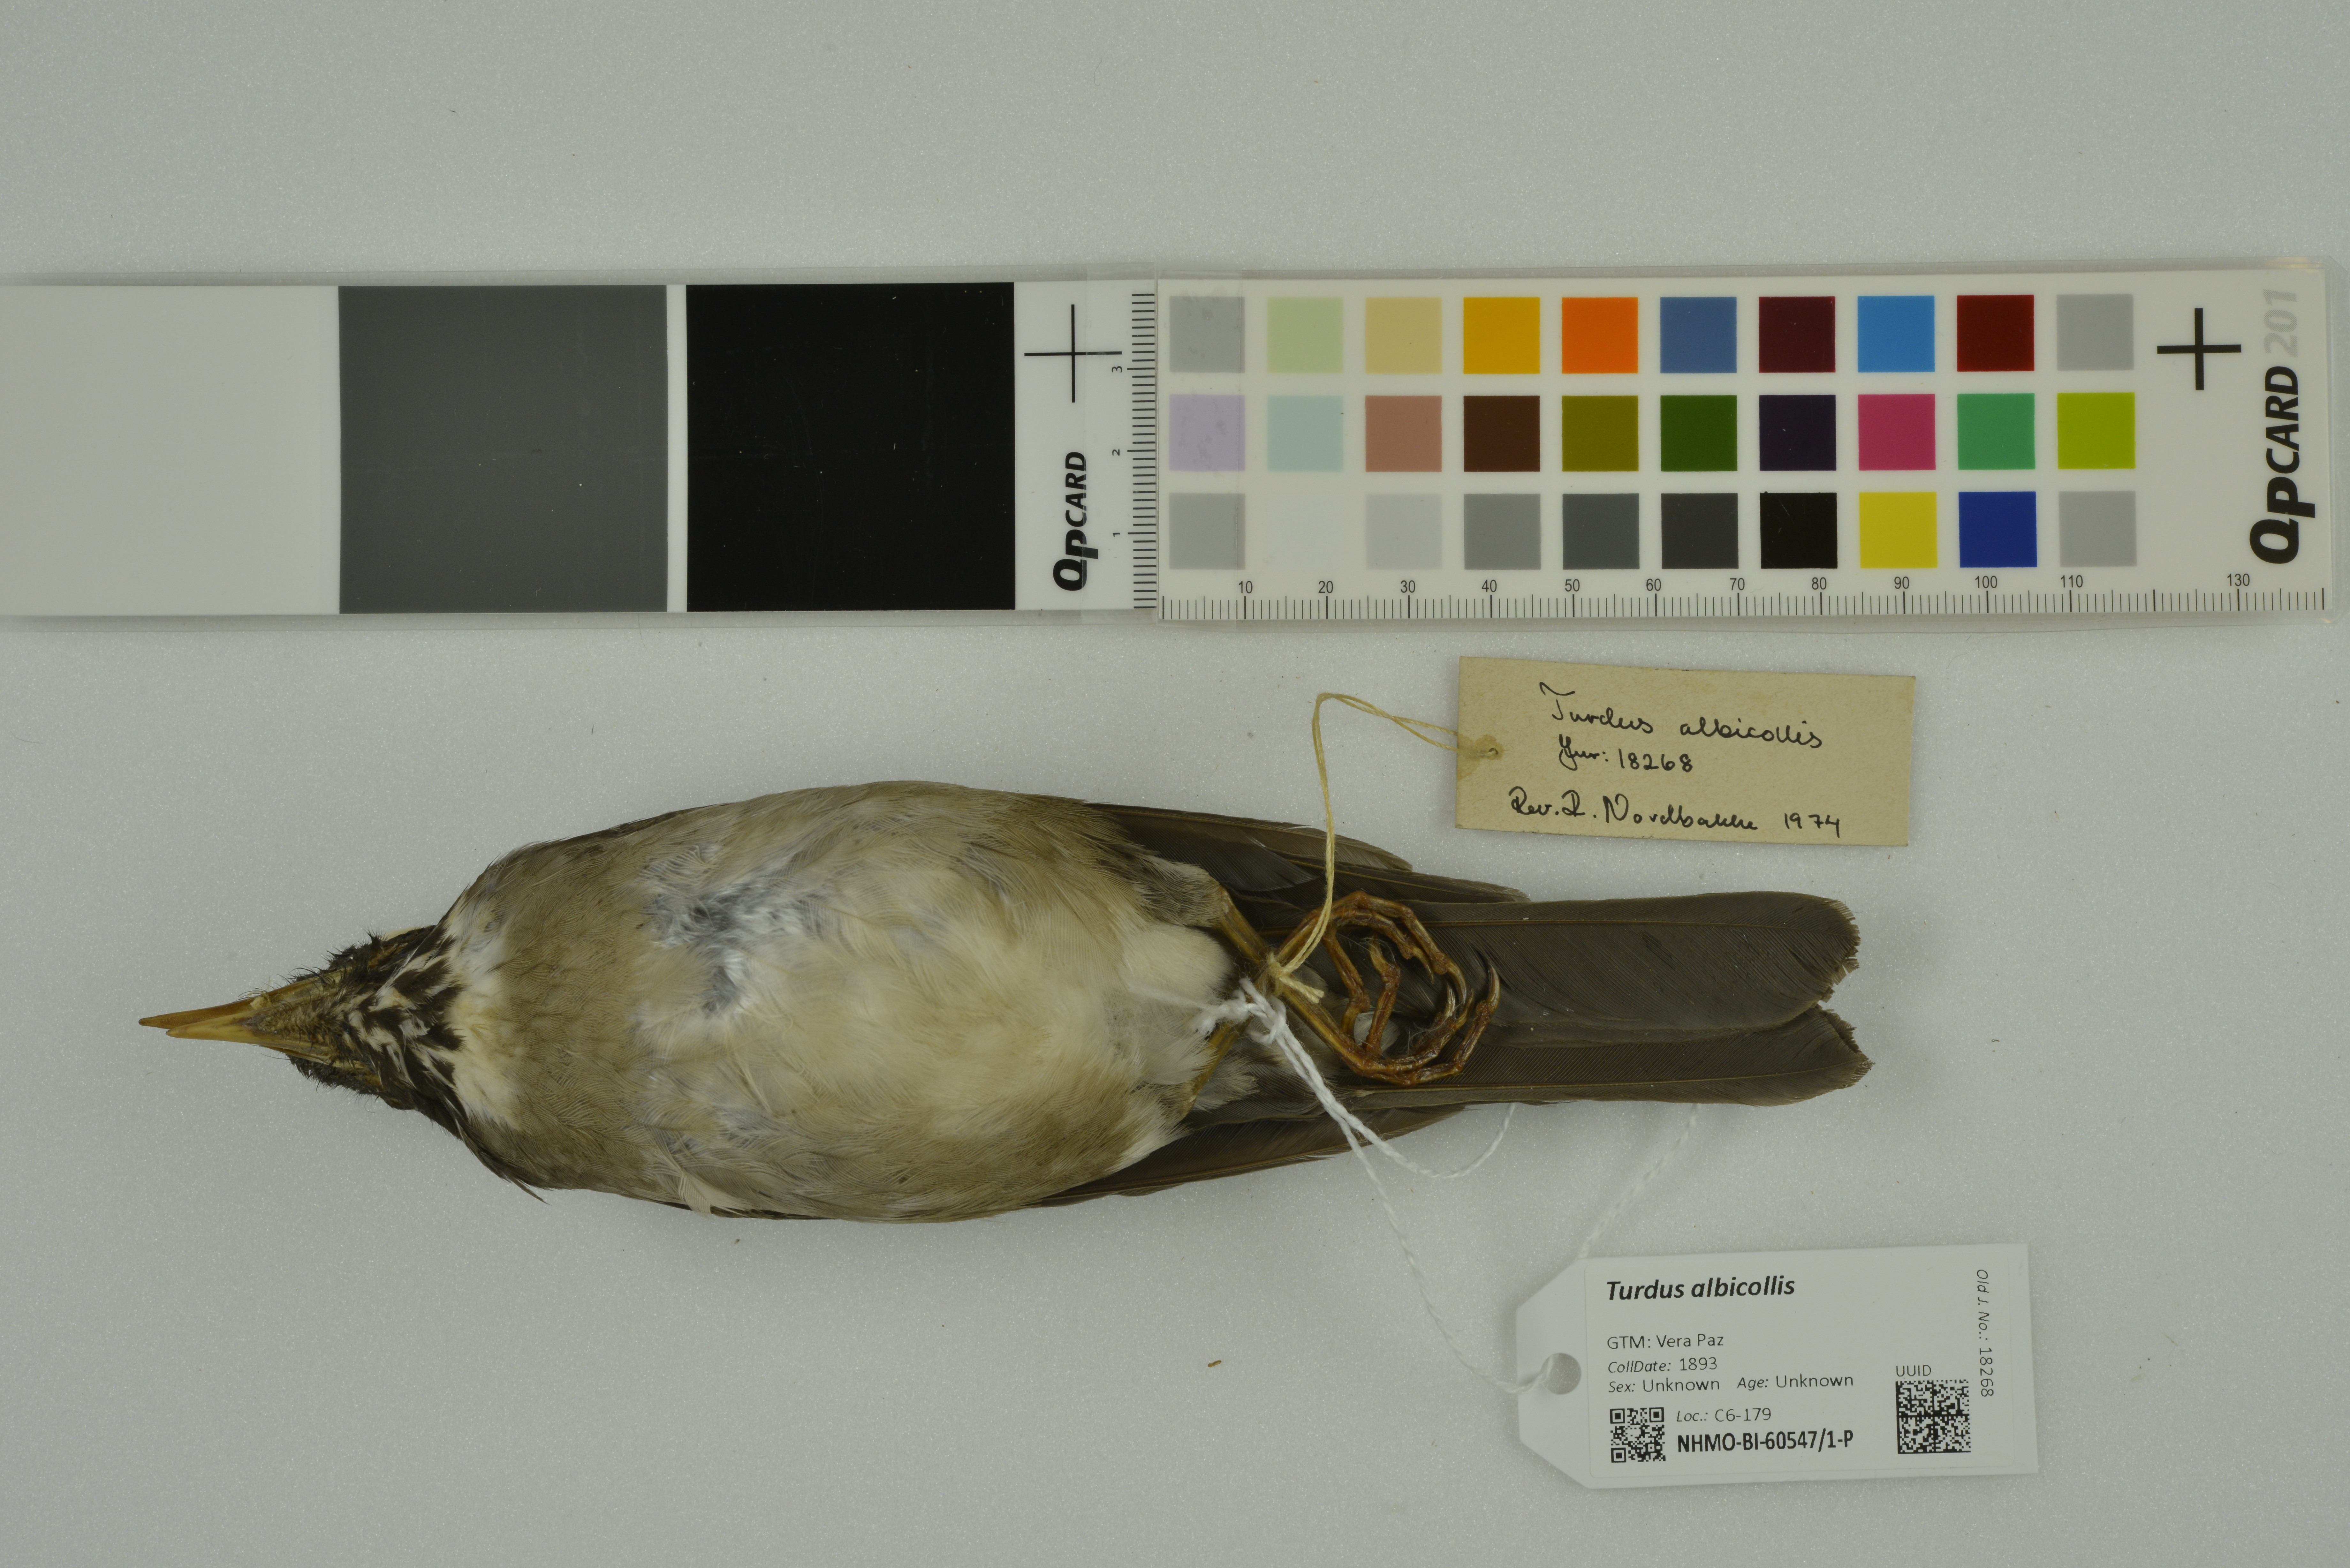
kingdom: Animalia
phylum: Chordata
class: Aves
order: Passeriformes
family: Turdidae
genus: Turdus
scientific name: Turdus albicollis
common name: White-necked thrush
